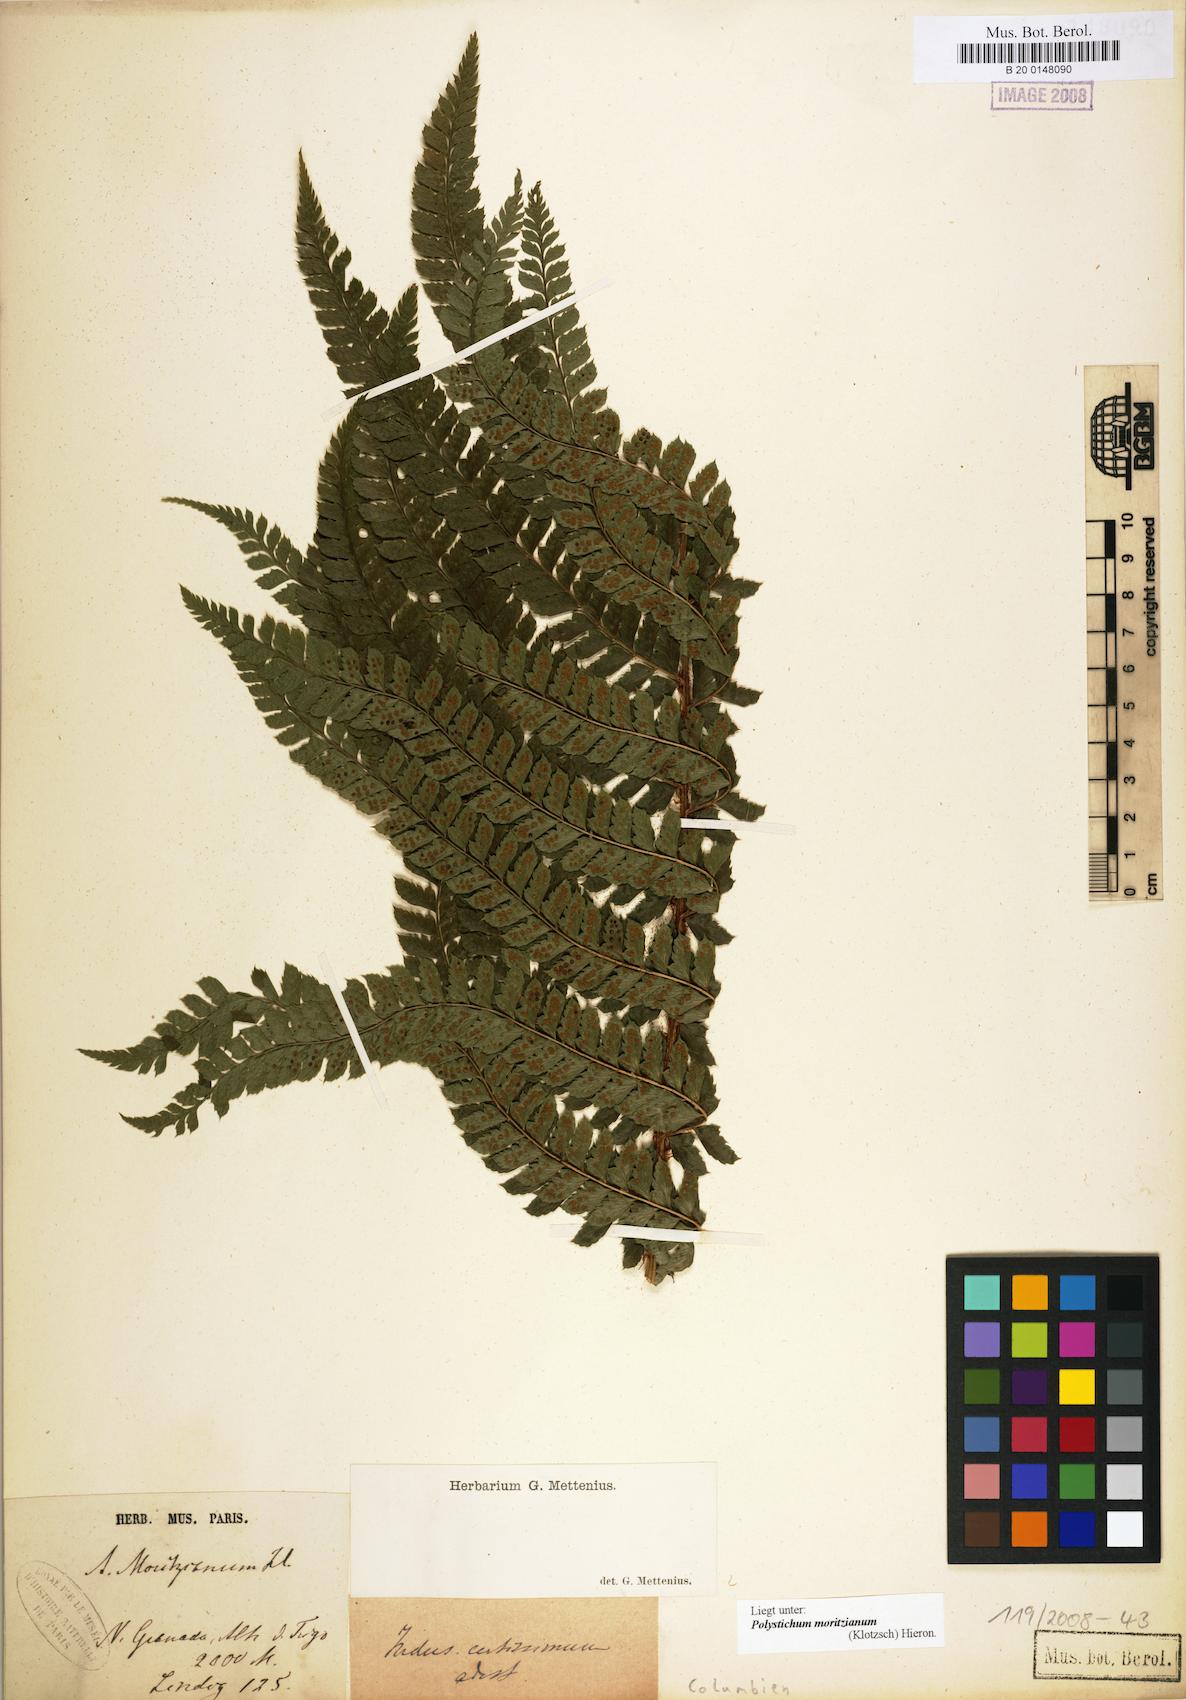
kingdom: Plantae
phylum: Tracheophyta
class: Polypodiopsida
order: Polypodiales
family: Dryopteridaceae
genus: Polystichum
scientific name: Polystichum muricatum
